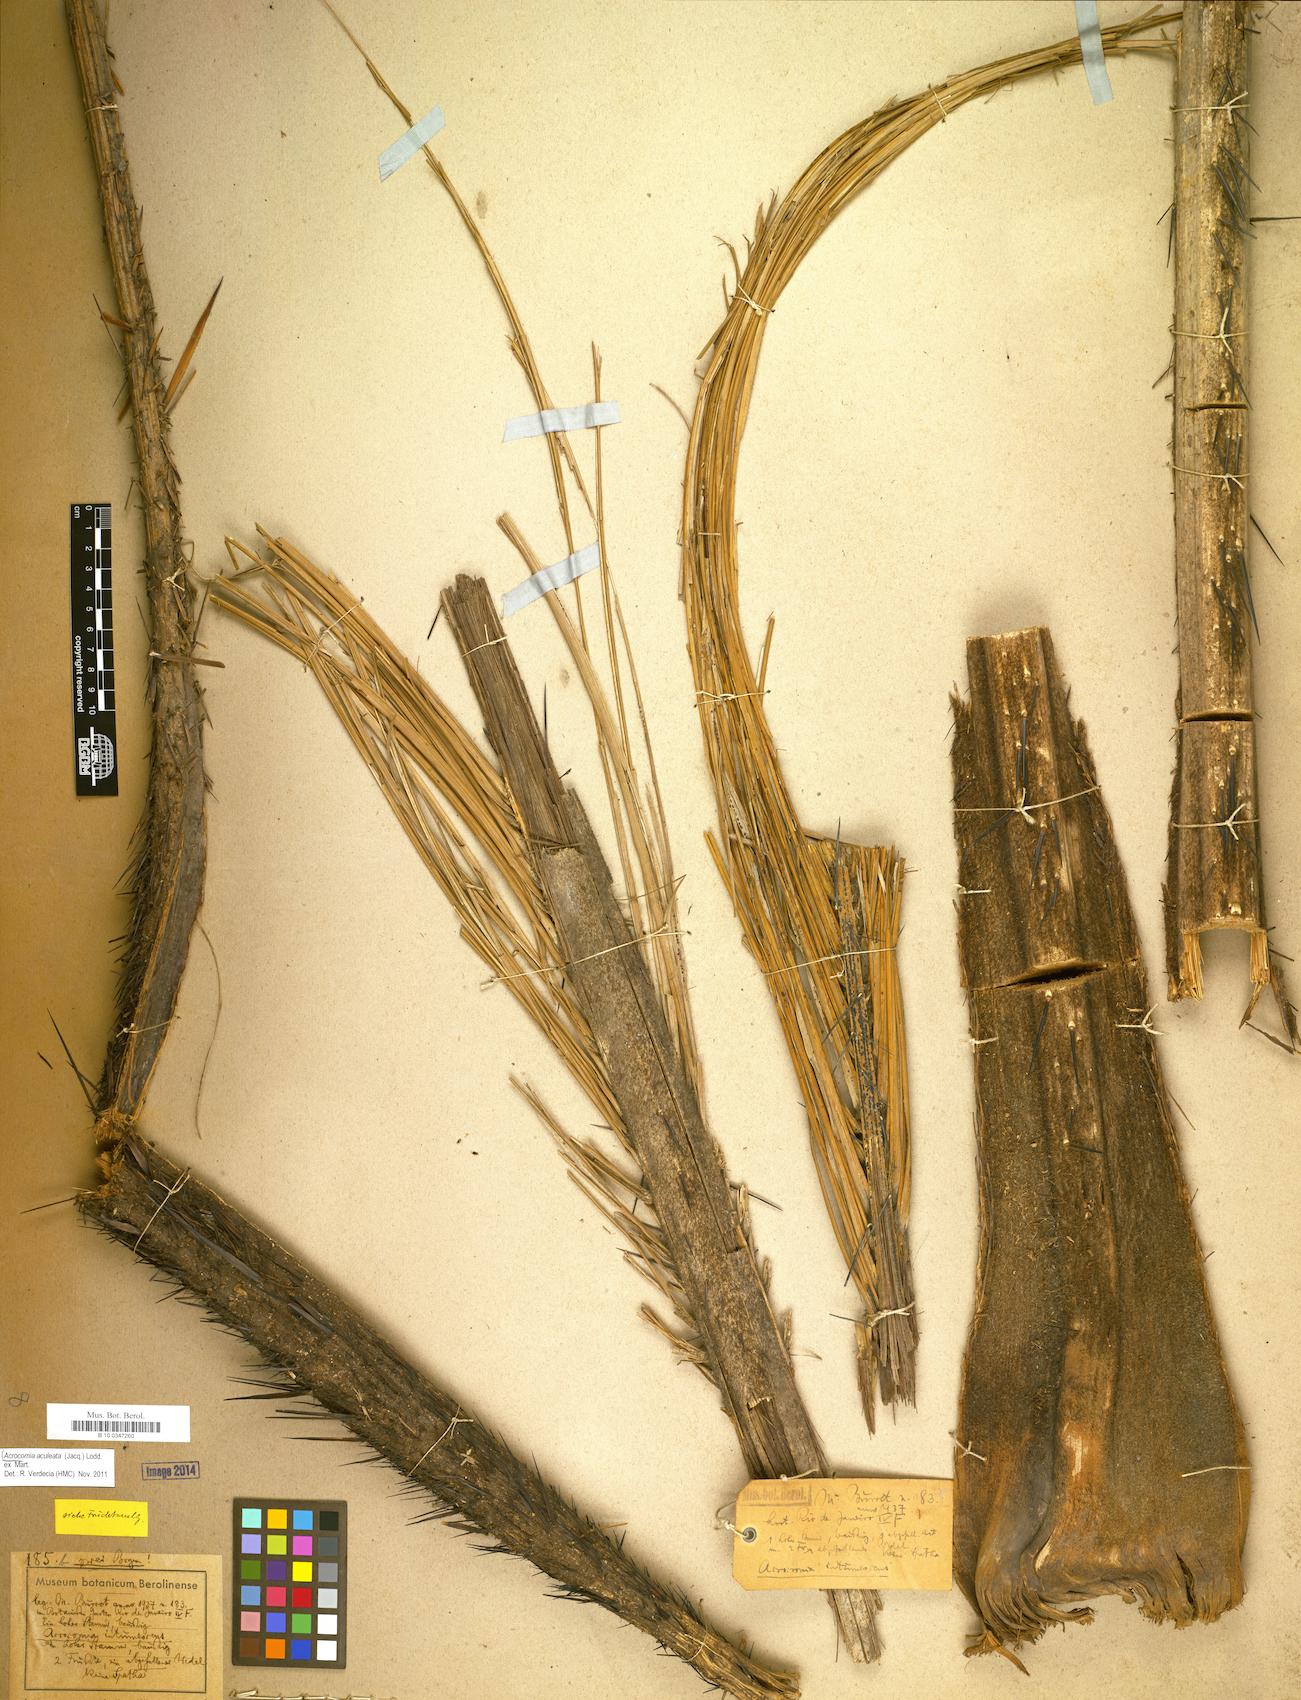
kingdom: Plantae
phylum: Tracheophyta
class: Liliopsida
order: Arecales
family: Arecaceae
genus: Acrocomia
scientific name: Acrocomia aculeata
